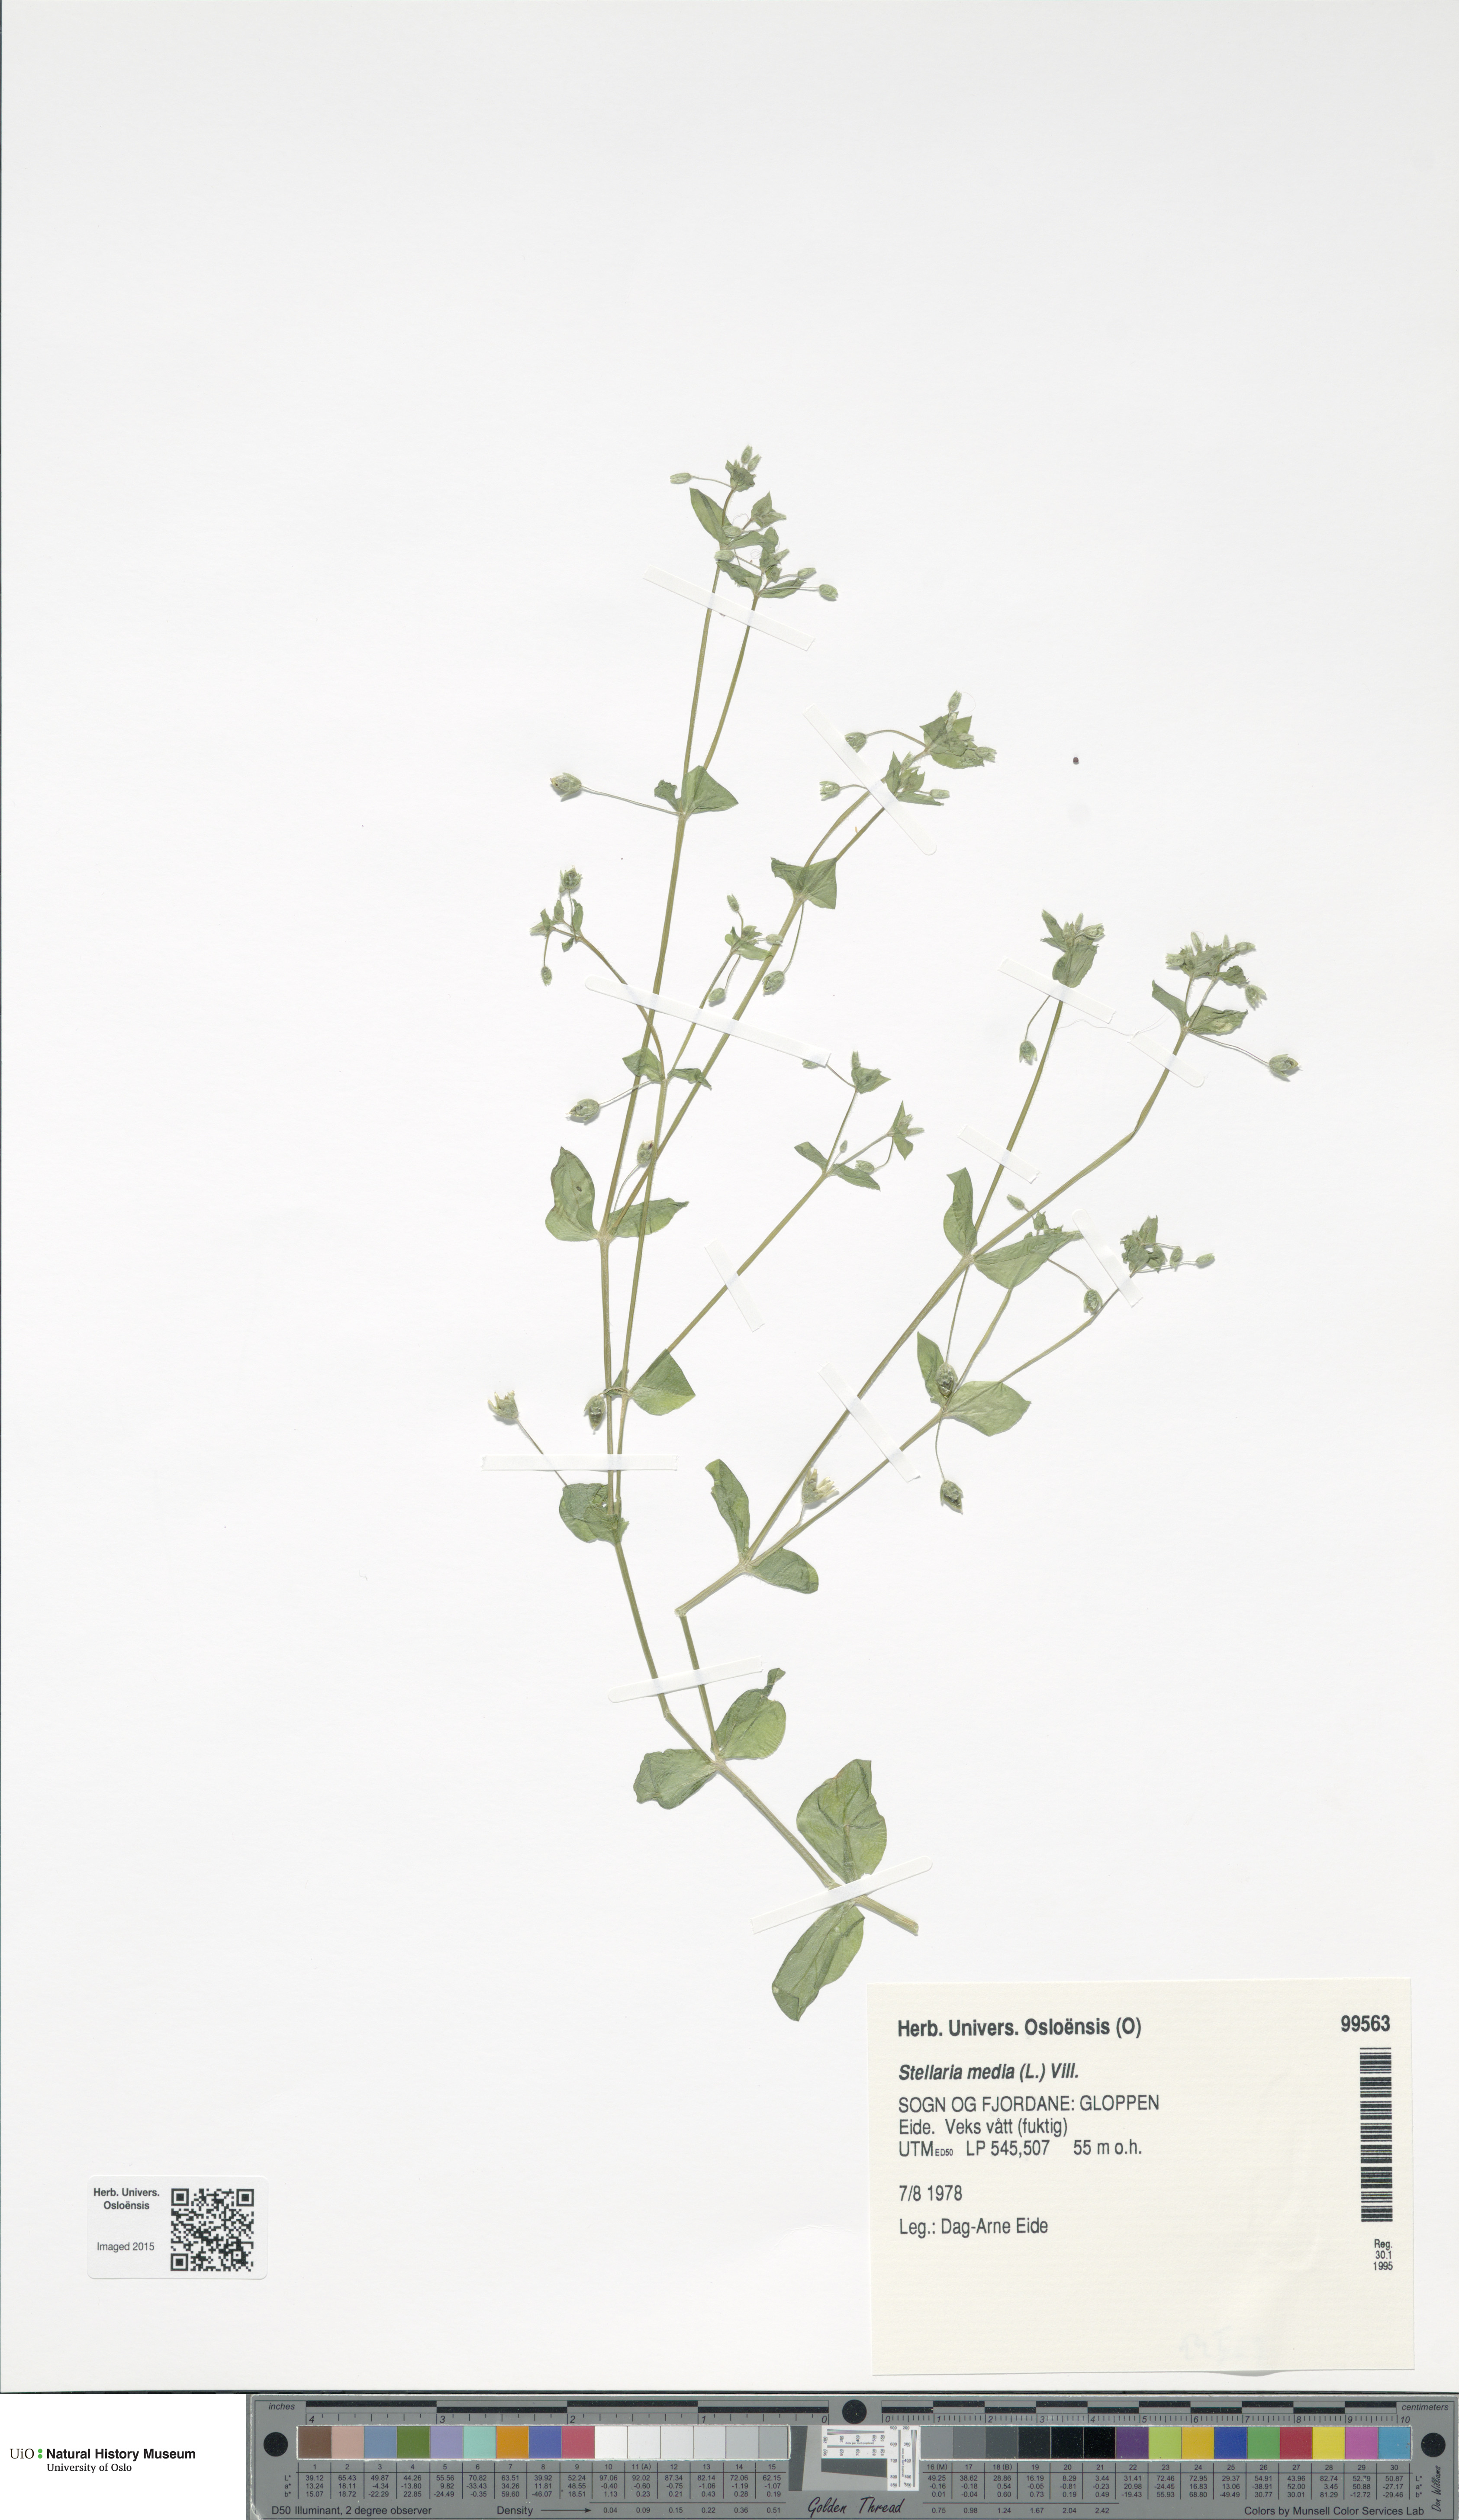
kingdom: Plantae
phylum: Tracheophyta
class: Magnoliopsida
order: Caryophyllales
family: Caryophyllaceae
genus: Stellaria
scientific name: Stellaria media
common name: Common chickweed
